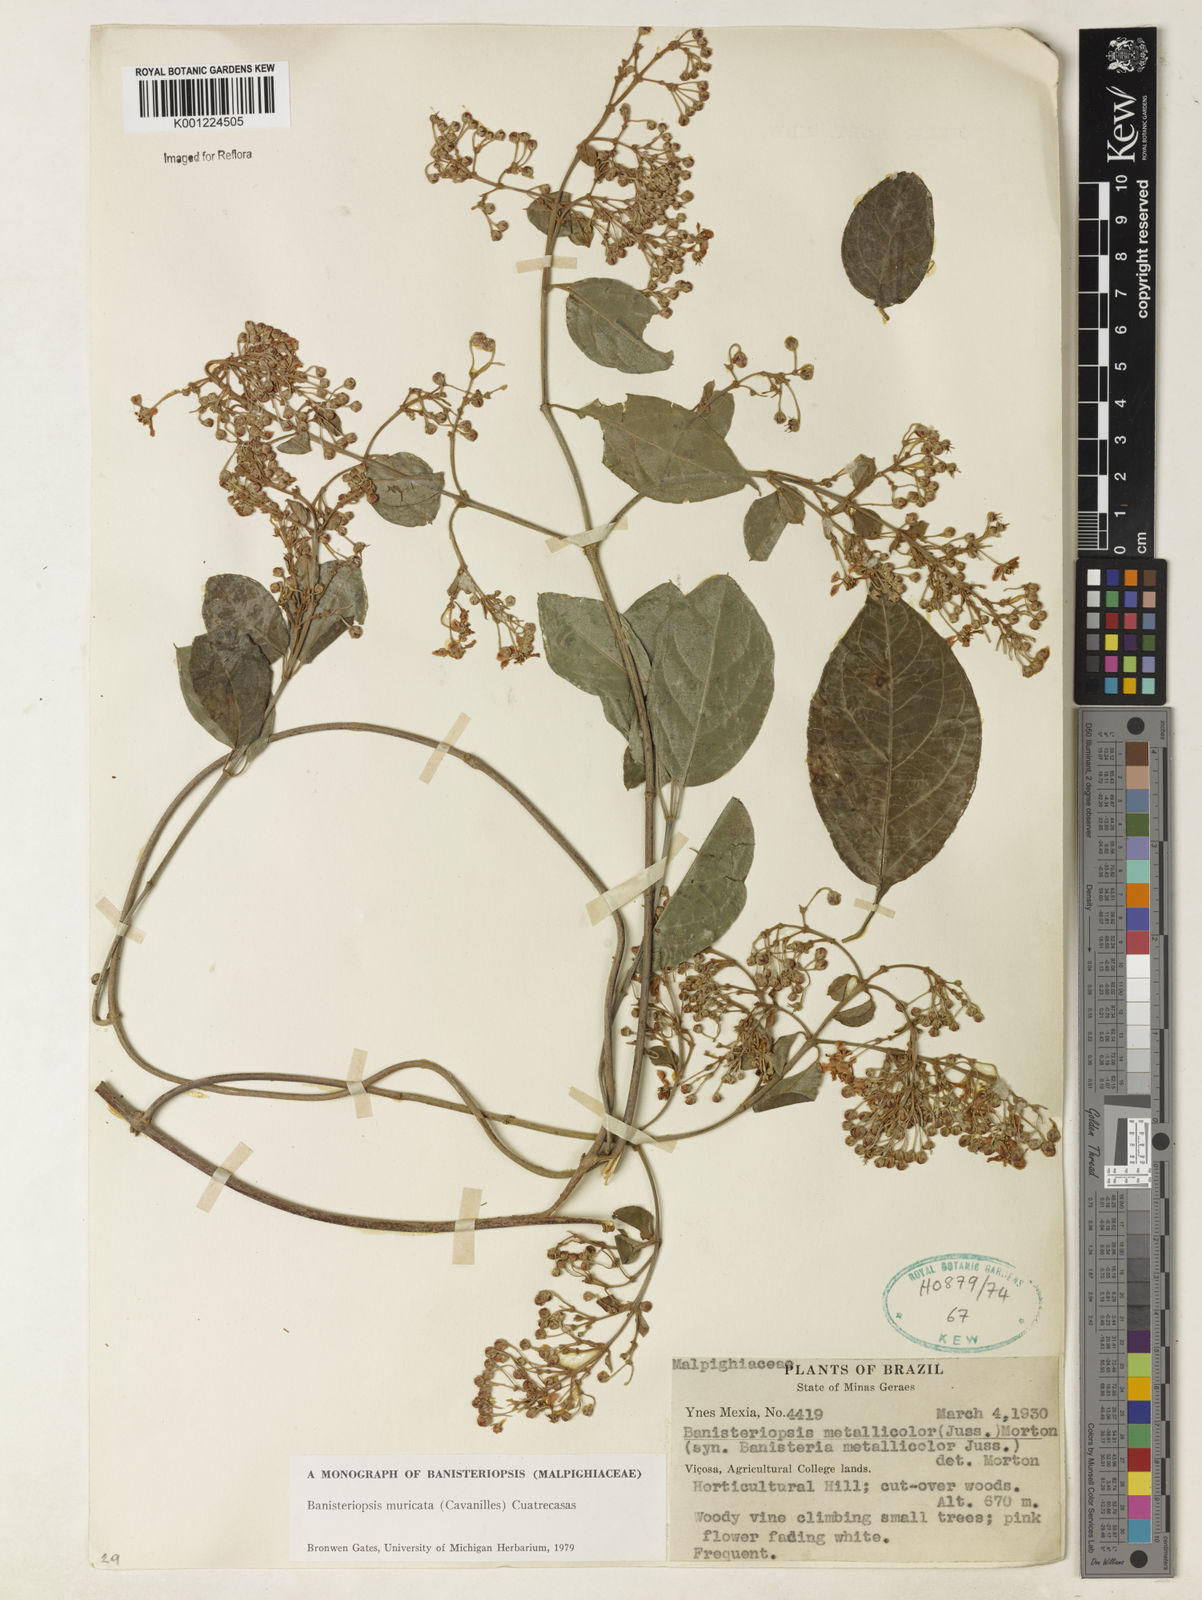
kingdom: Plantae
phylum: Tracheophyta
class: Magnoliopsida
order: Malpighiales
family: Malpighiaceae
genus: Banisteriopsis
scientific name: Banisteriopsis muricata
